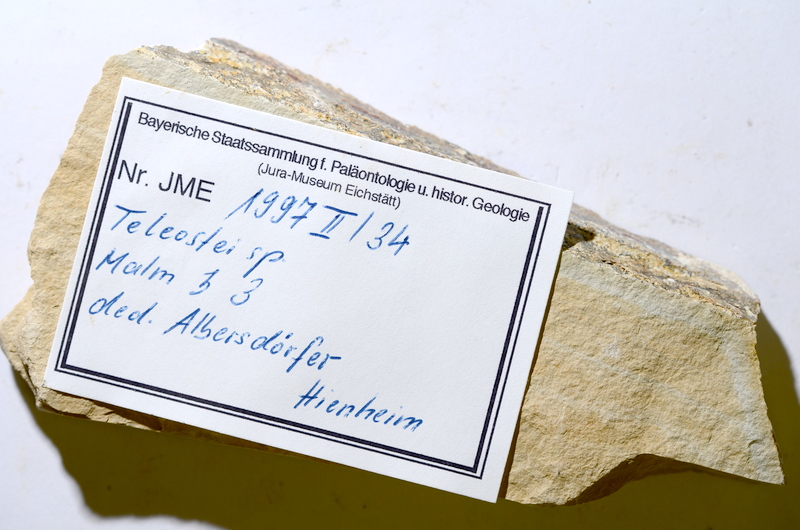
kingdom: Animalia
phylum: Chordata
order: Salmoniformes
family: Orthogonikleithridae
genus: Leptolepides
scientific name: Leptolepides
